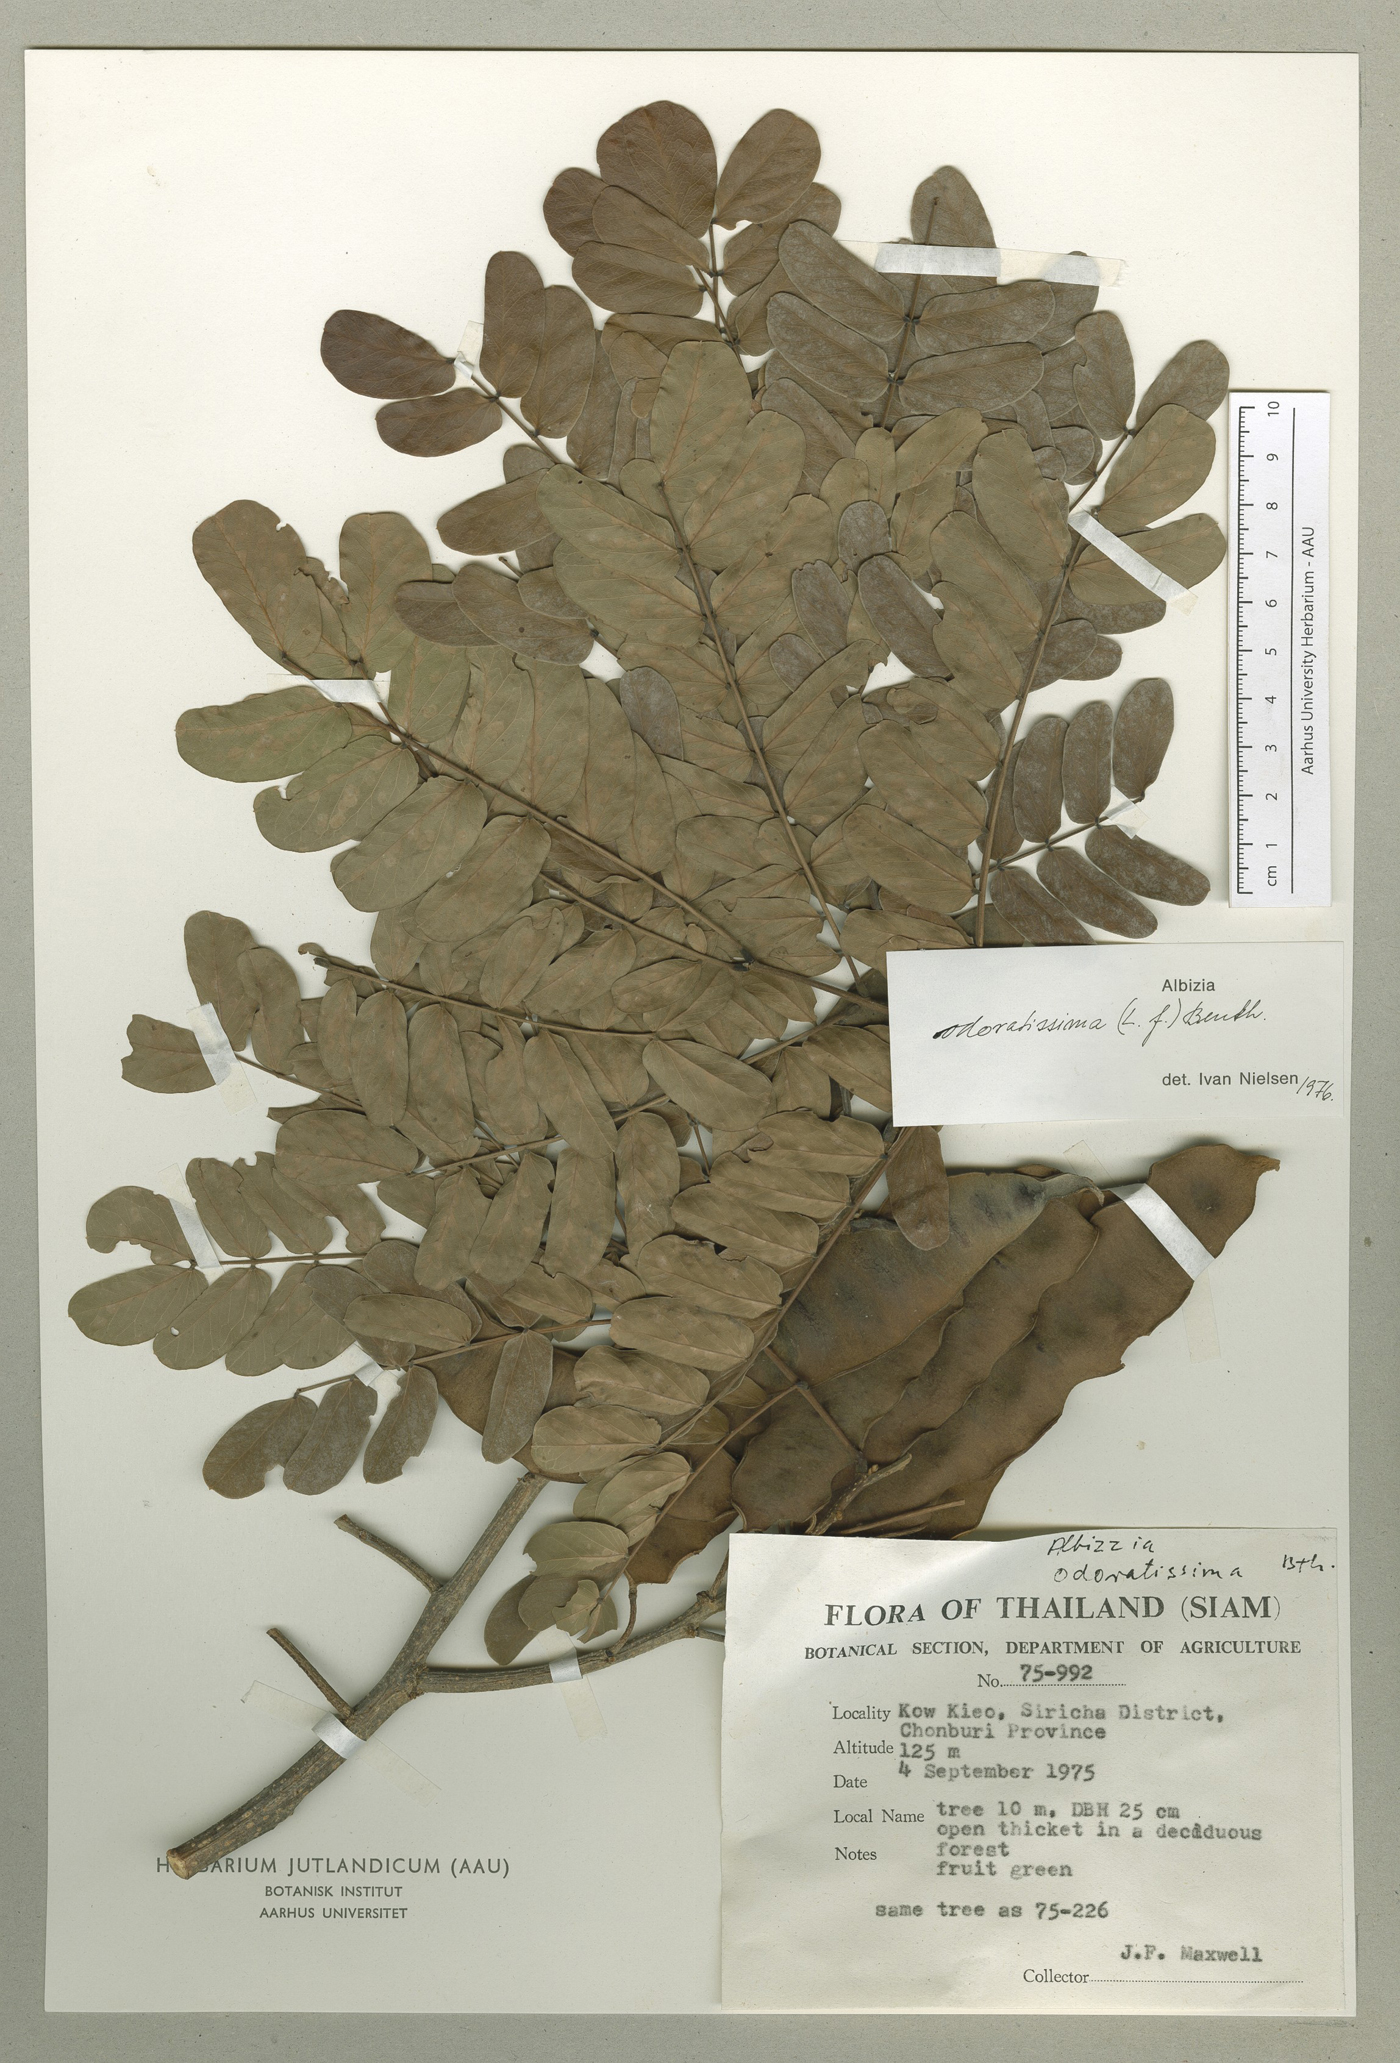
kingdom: Plantae
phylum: Tracheophyta
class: Magnoliopsida
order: Fabales
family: Fabaceae
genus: Albizia
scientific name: Albizia odoratissima
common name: Ceylon rosewood
